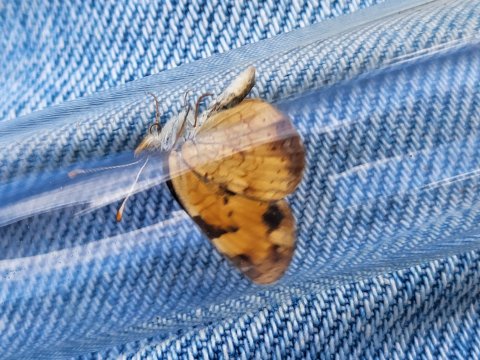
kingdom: Animalia
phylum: Arthropoda
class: Insecta
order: Lepidoptera
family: Nymphalidae
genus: Phyciodes
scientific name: Phyciodes
